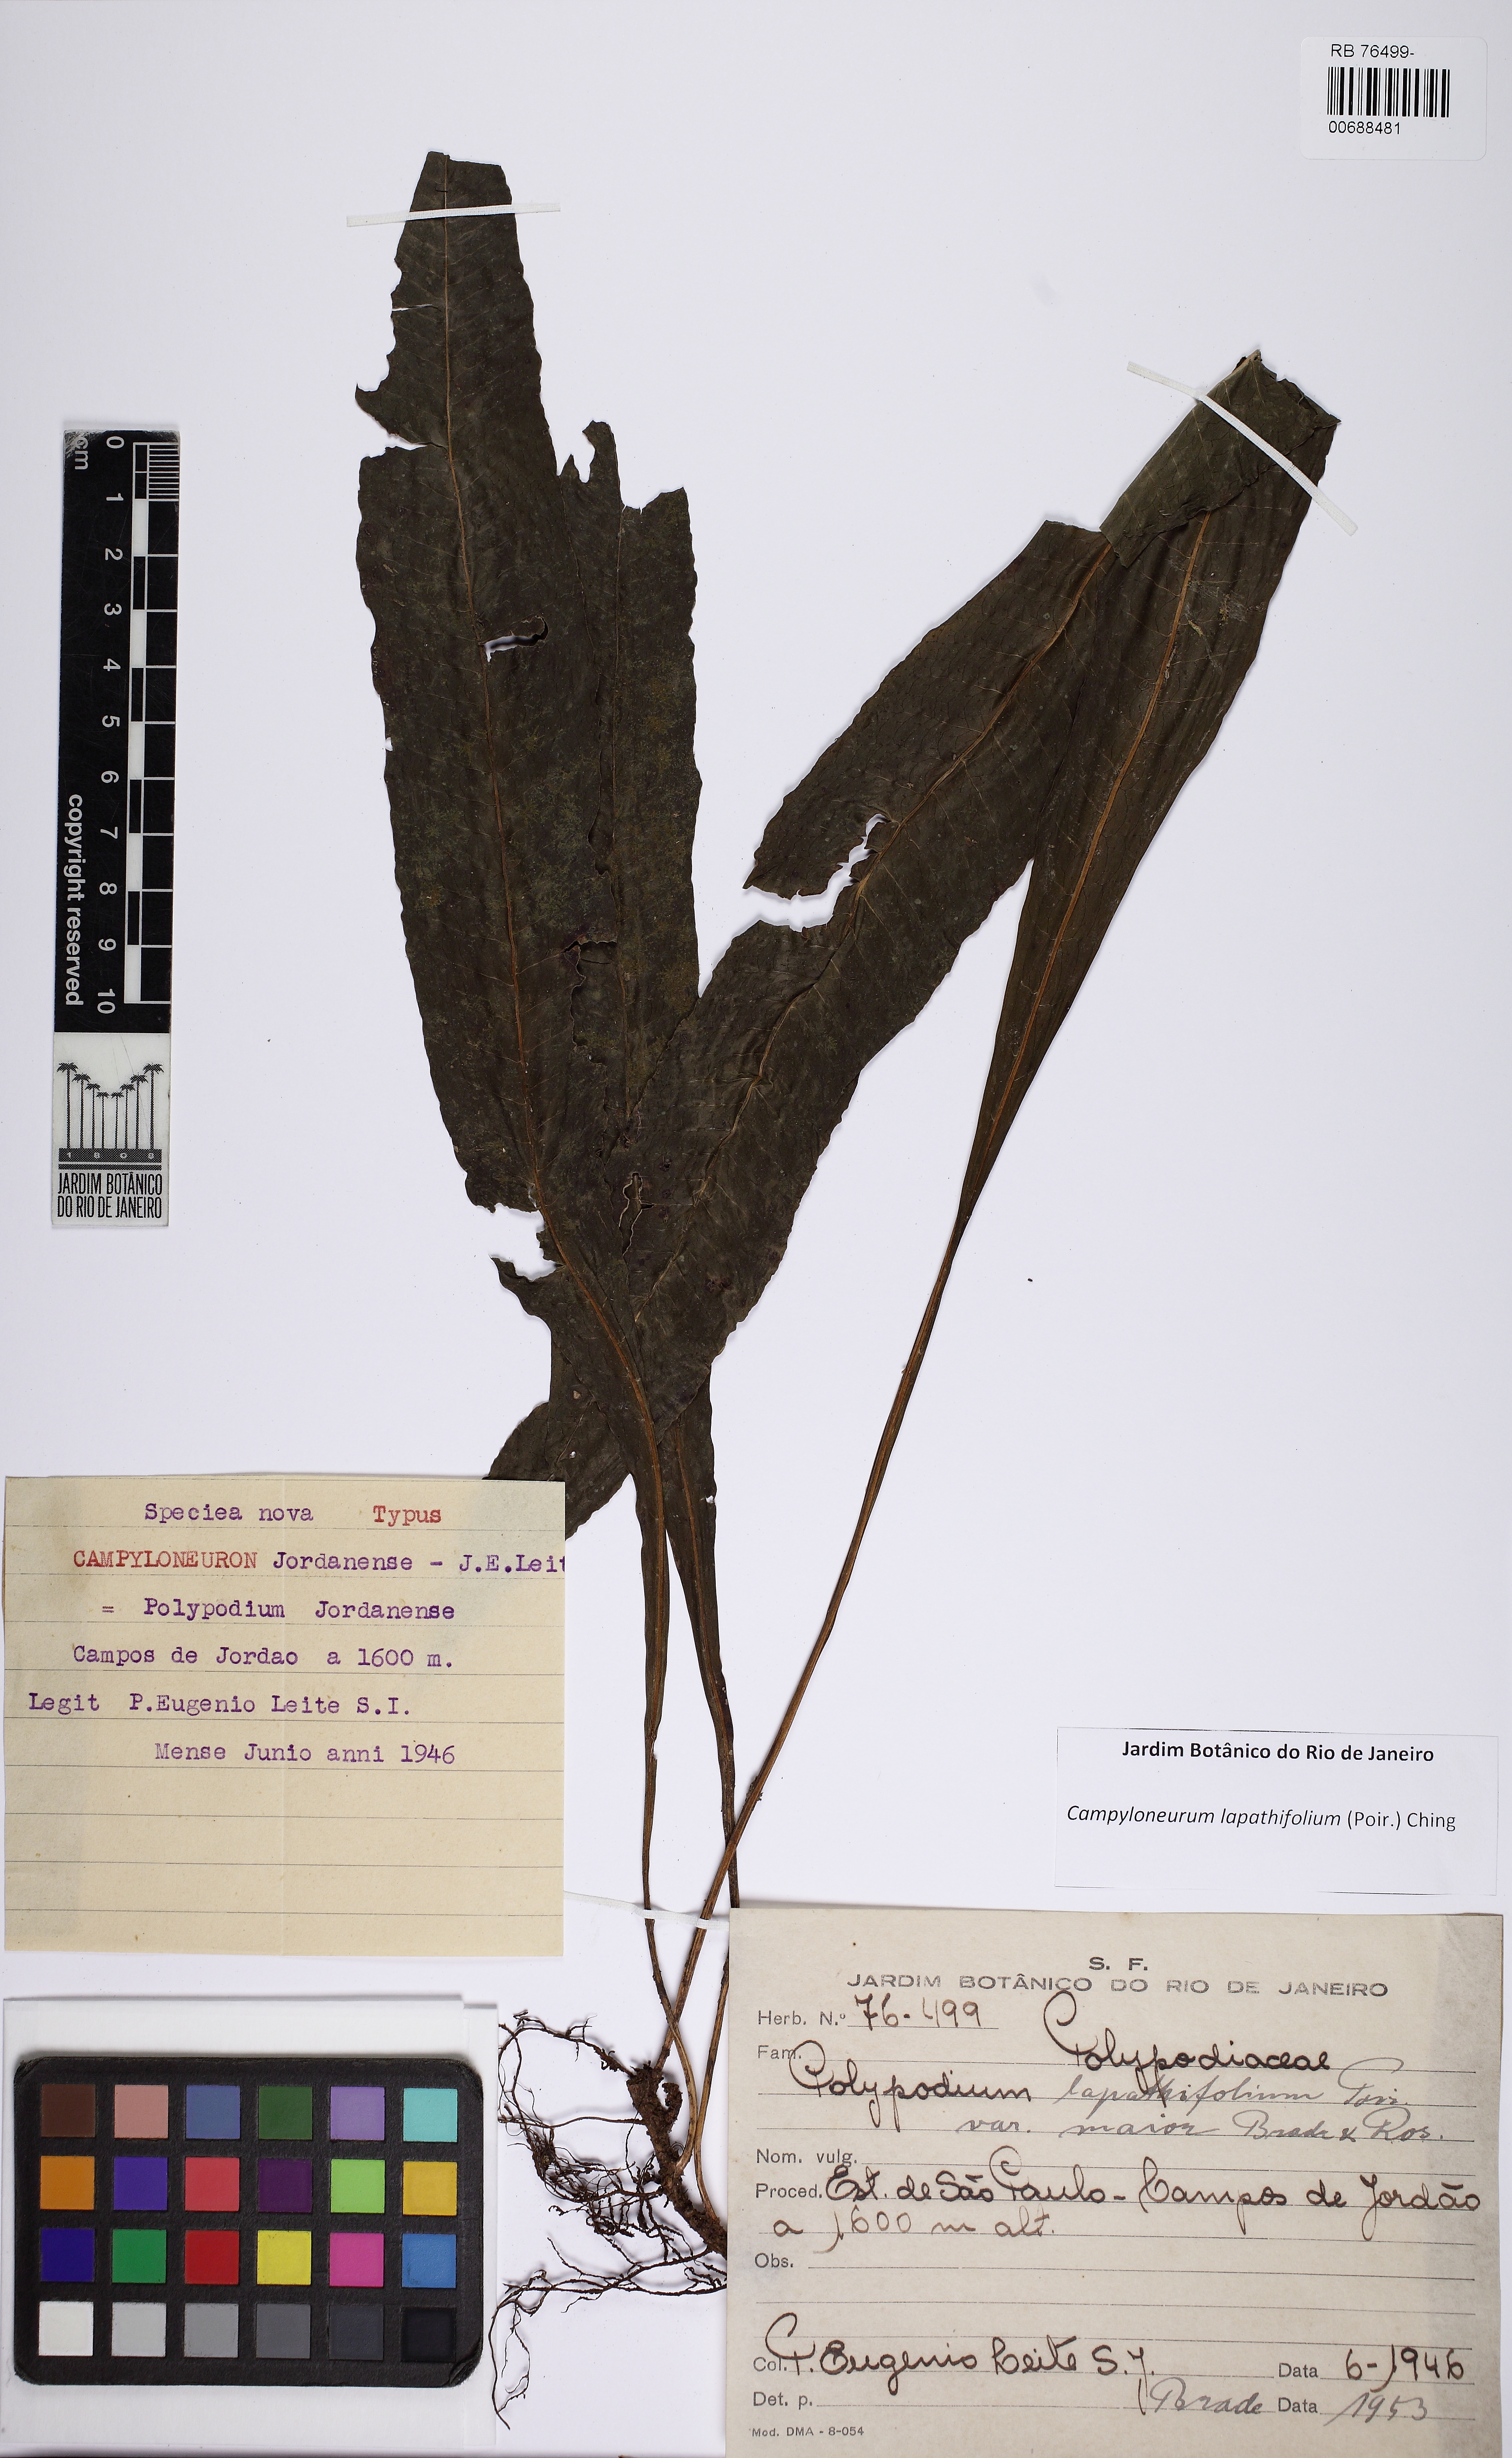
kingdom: Plantae
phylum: Tracheophyta
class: Polypodiopsida
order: Polypodiales
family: Polypodiaceae
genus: Campyloneurum
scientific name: Campyloneurum repens
